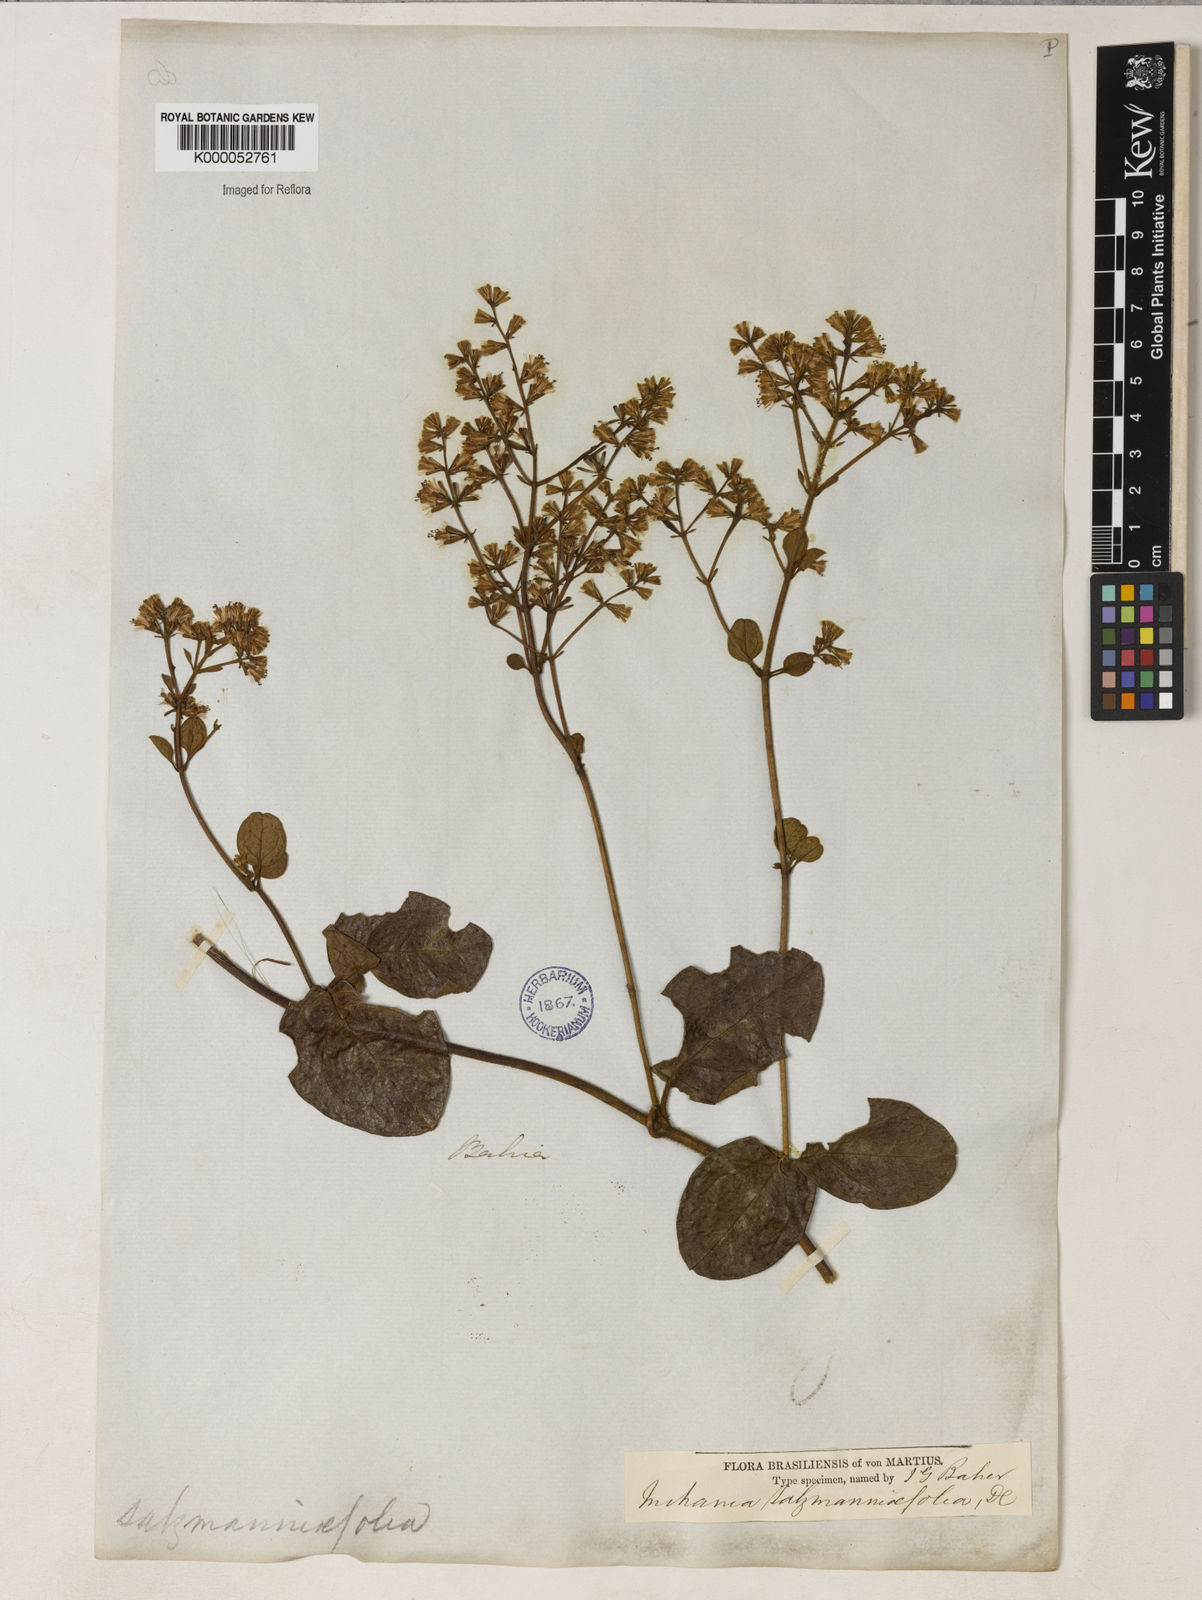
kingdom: Plantae
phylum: Tracheophyta
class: Magnoliopsida
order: Asterales
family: Asteraceae
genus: Mikania
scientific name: Mikania salzmanniifolia
